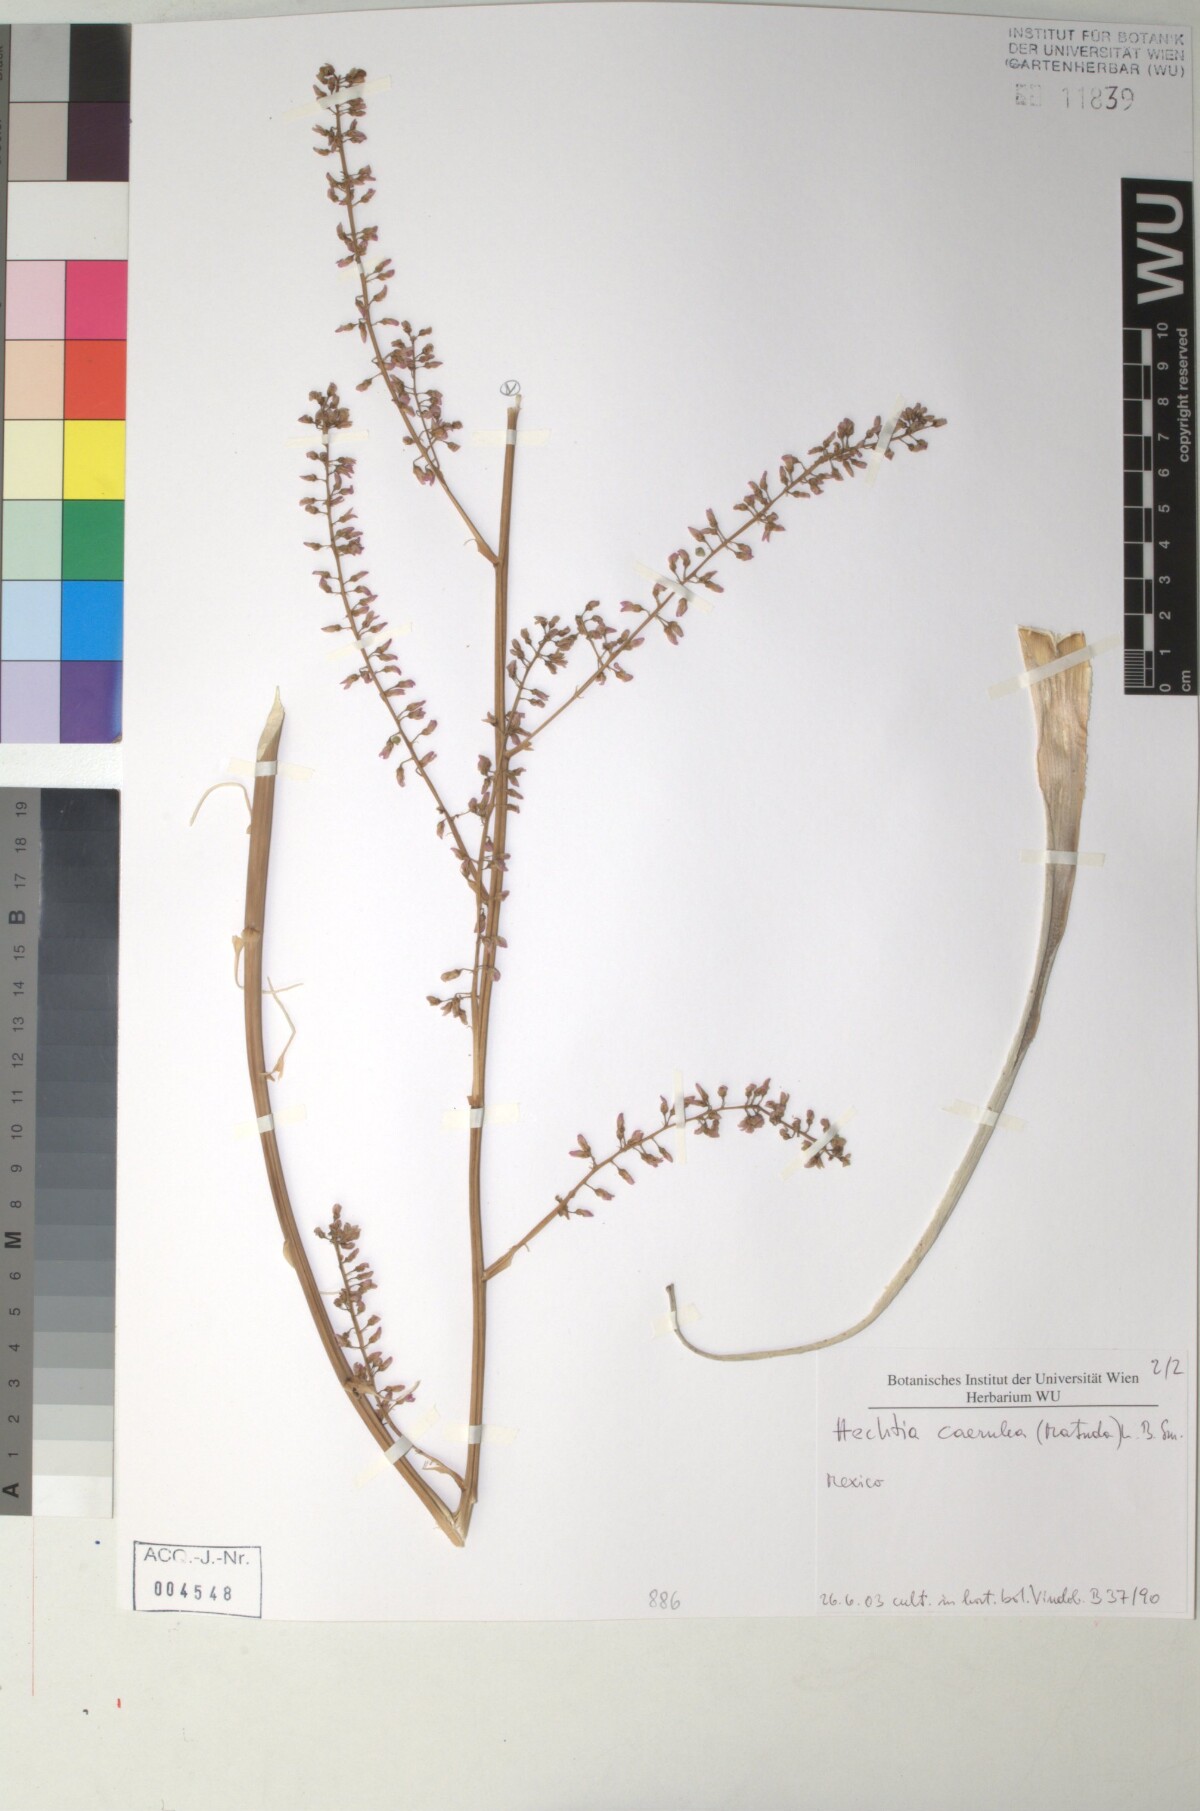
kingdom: Plantae
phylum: Tracheophyta
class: Liliopsida
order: Poales
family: Bromeliaceae
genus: Hechtia
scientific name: Hechtia
